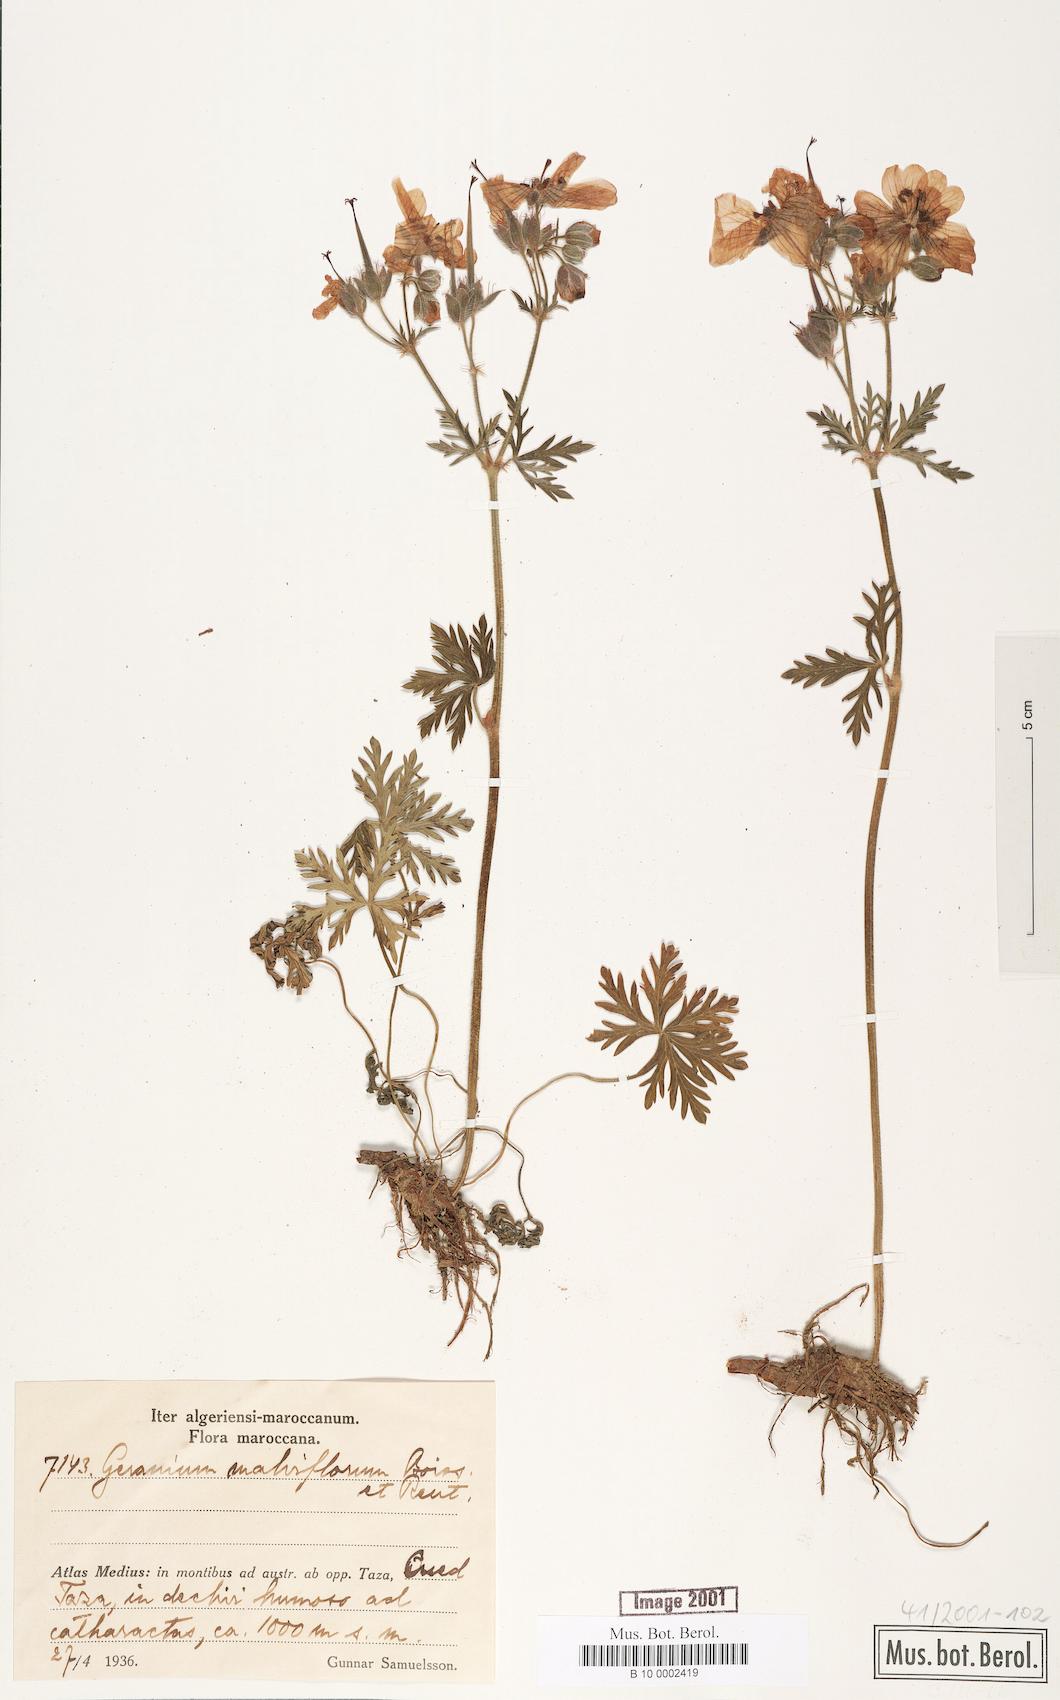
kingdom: Plantae
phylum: Tracheophyta
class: Magnoliopsida
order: Geraniales
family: Geraniaceae
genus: Geranium
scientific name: Geranium malviflorum
